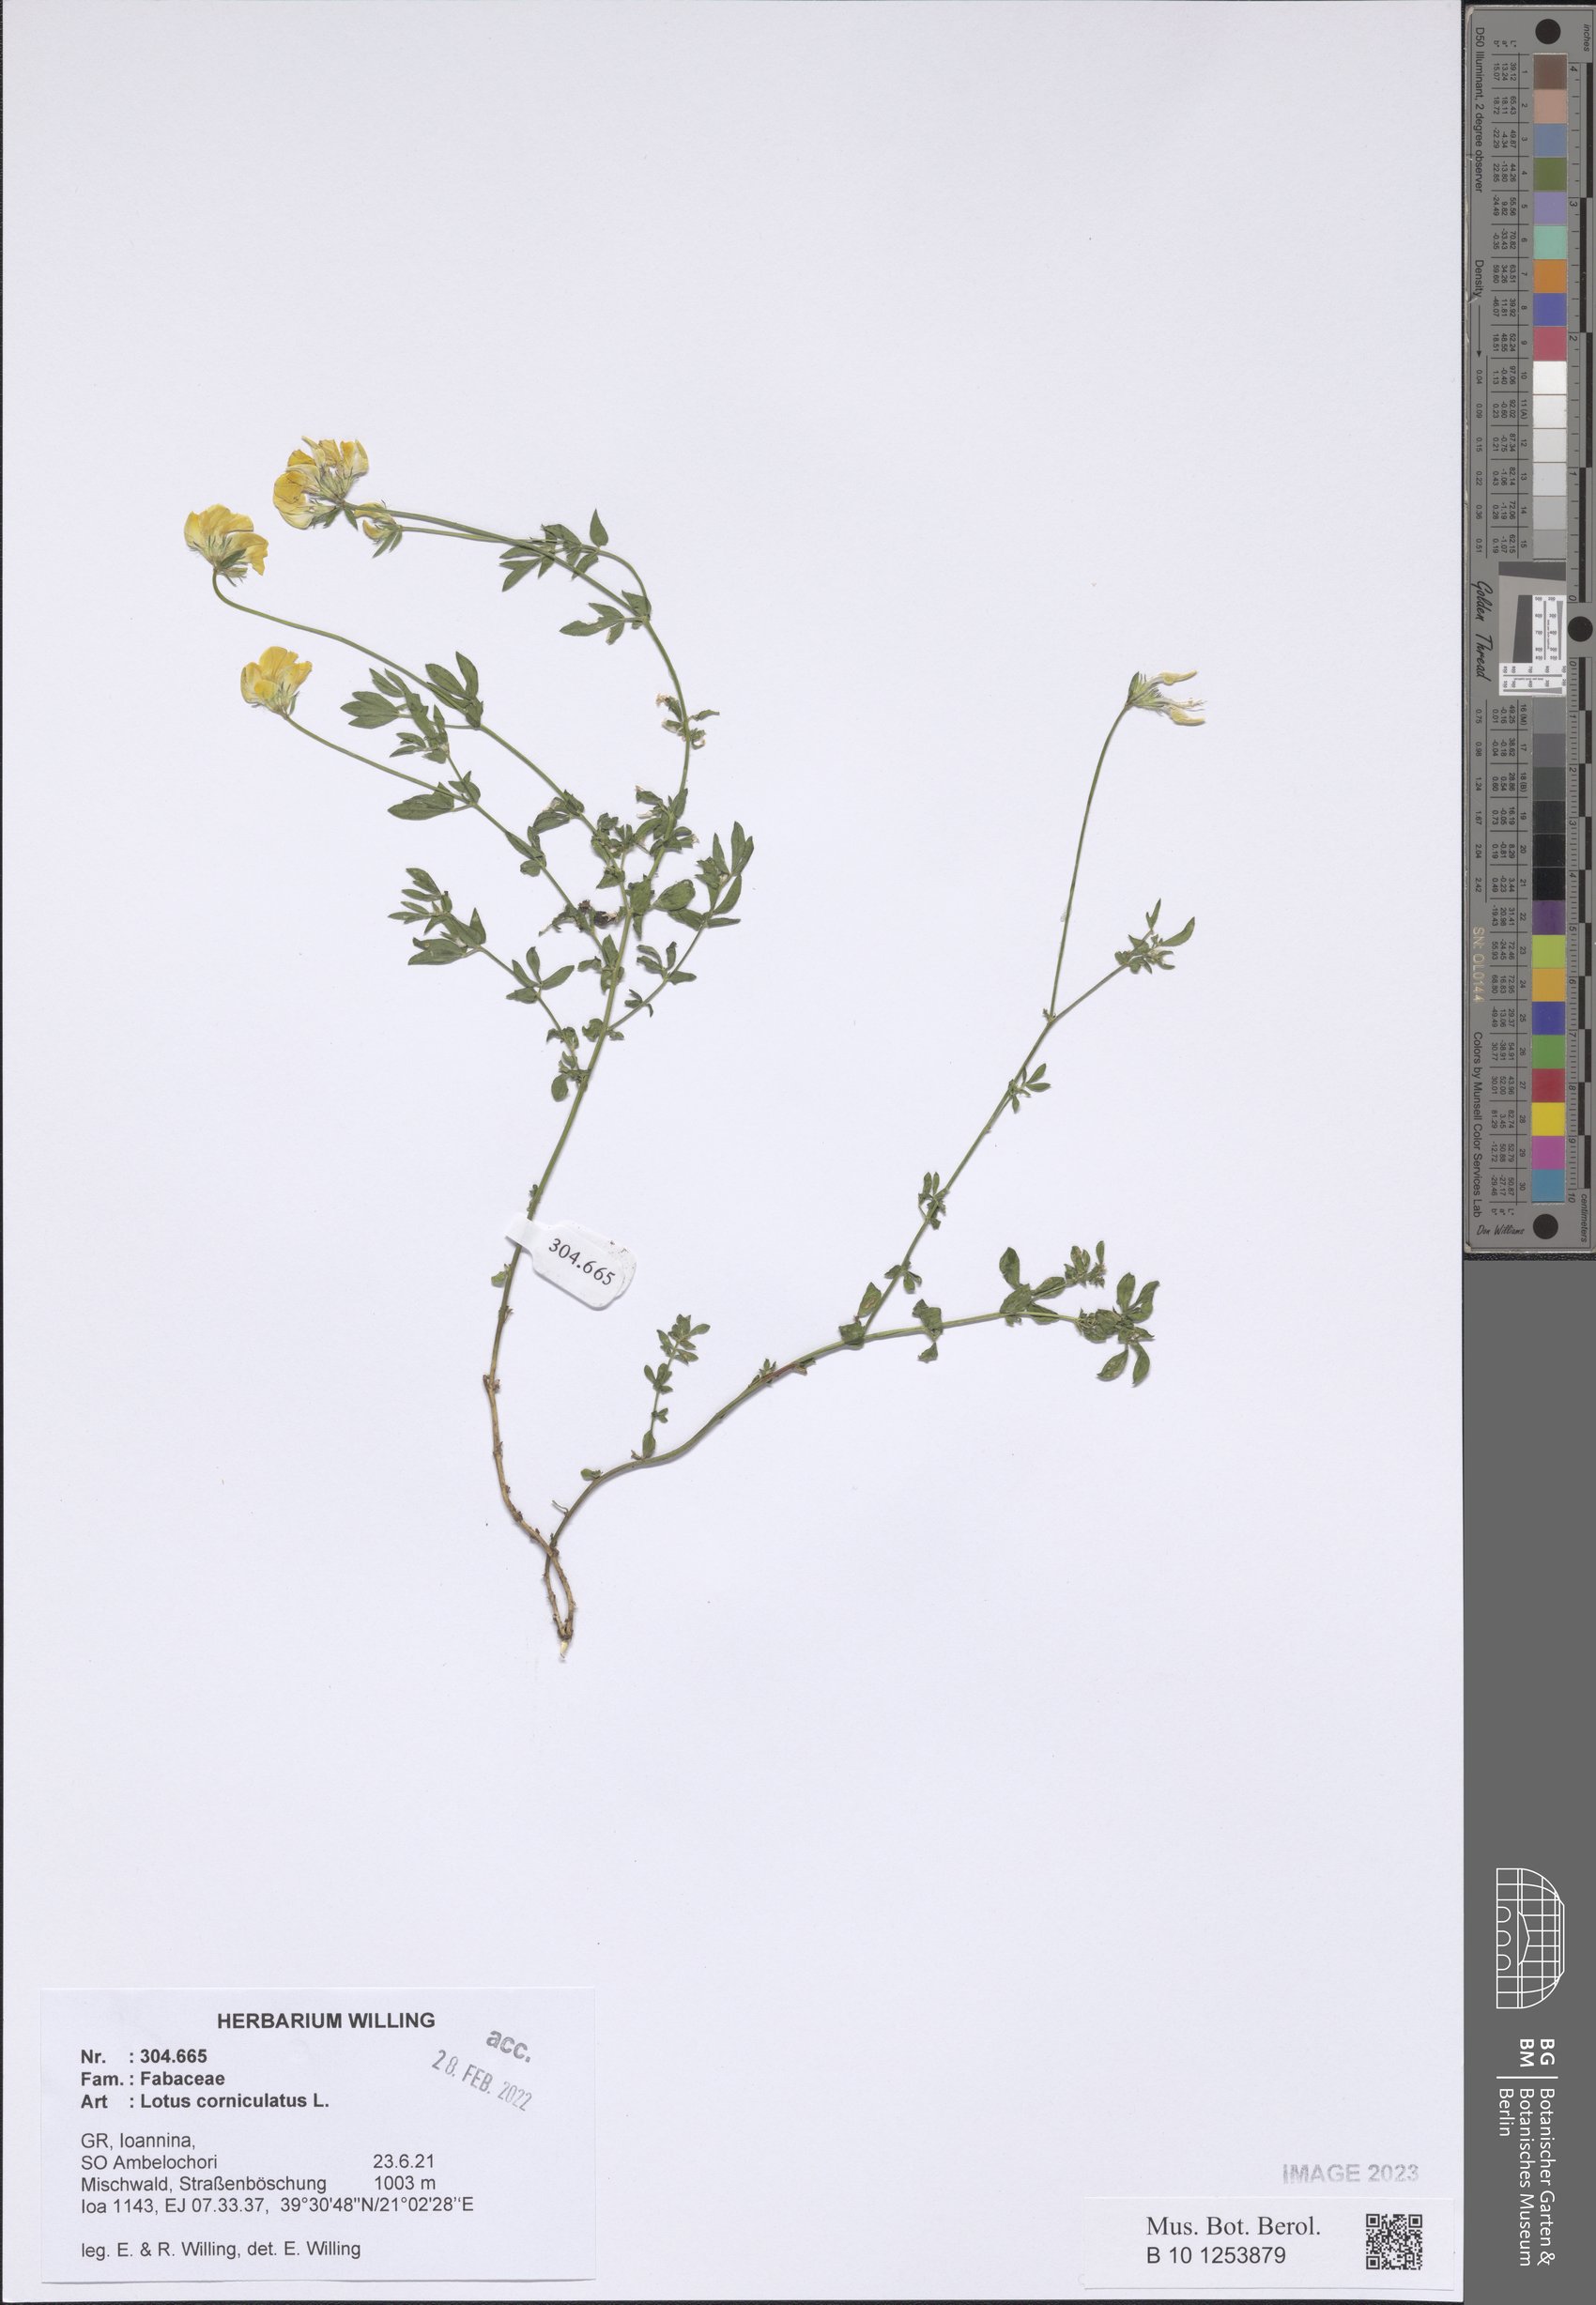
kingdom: Plantae
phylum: Tracheophyta
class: Magnoliopsida
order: Fabales
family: Fabaceae
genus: Lotus
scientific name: Lotus corniculatus
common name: Common bird's-foot-trefoil
